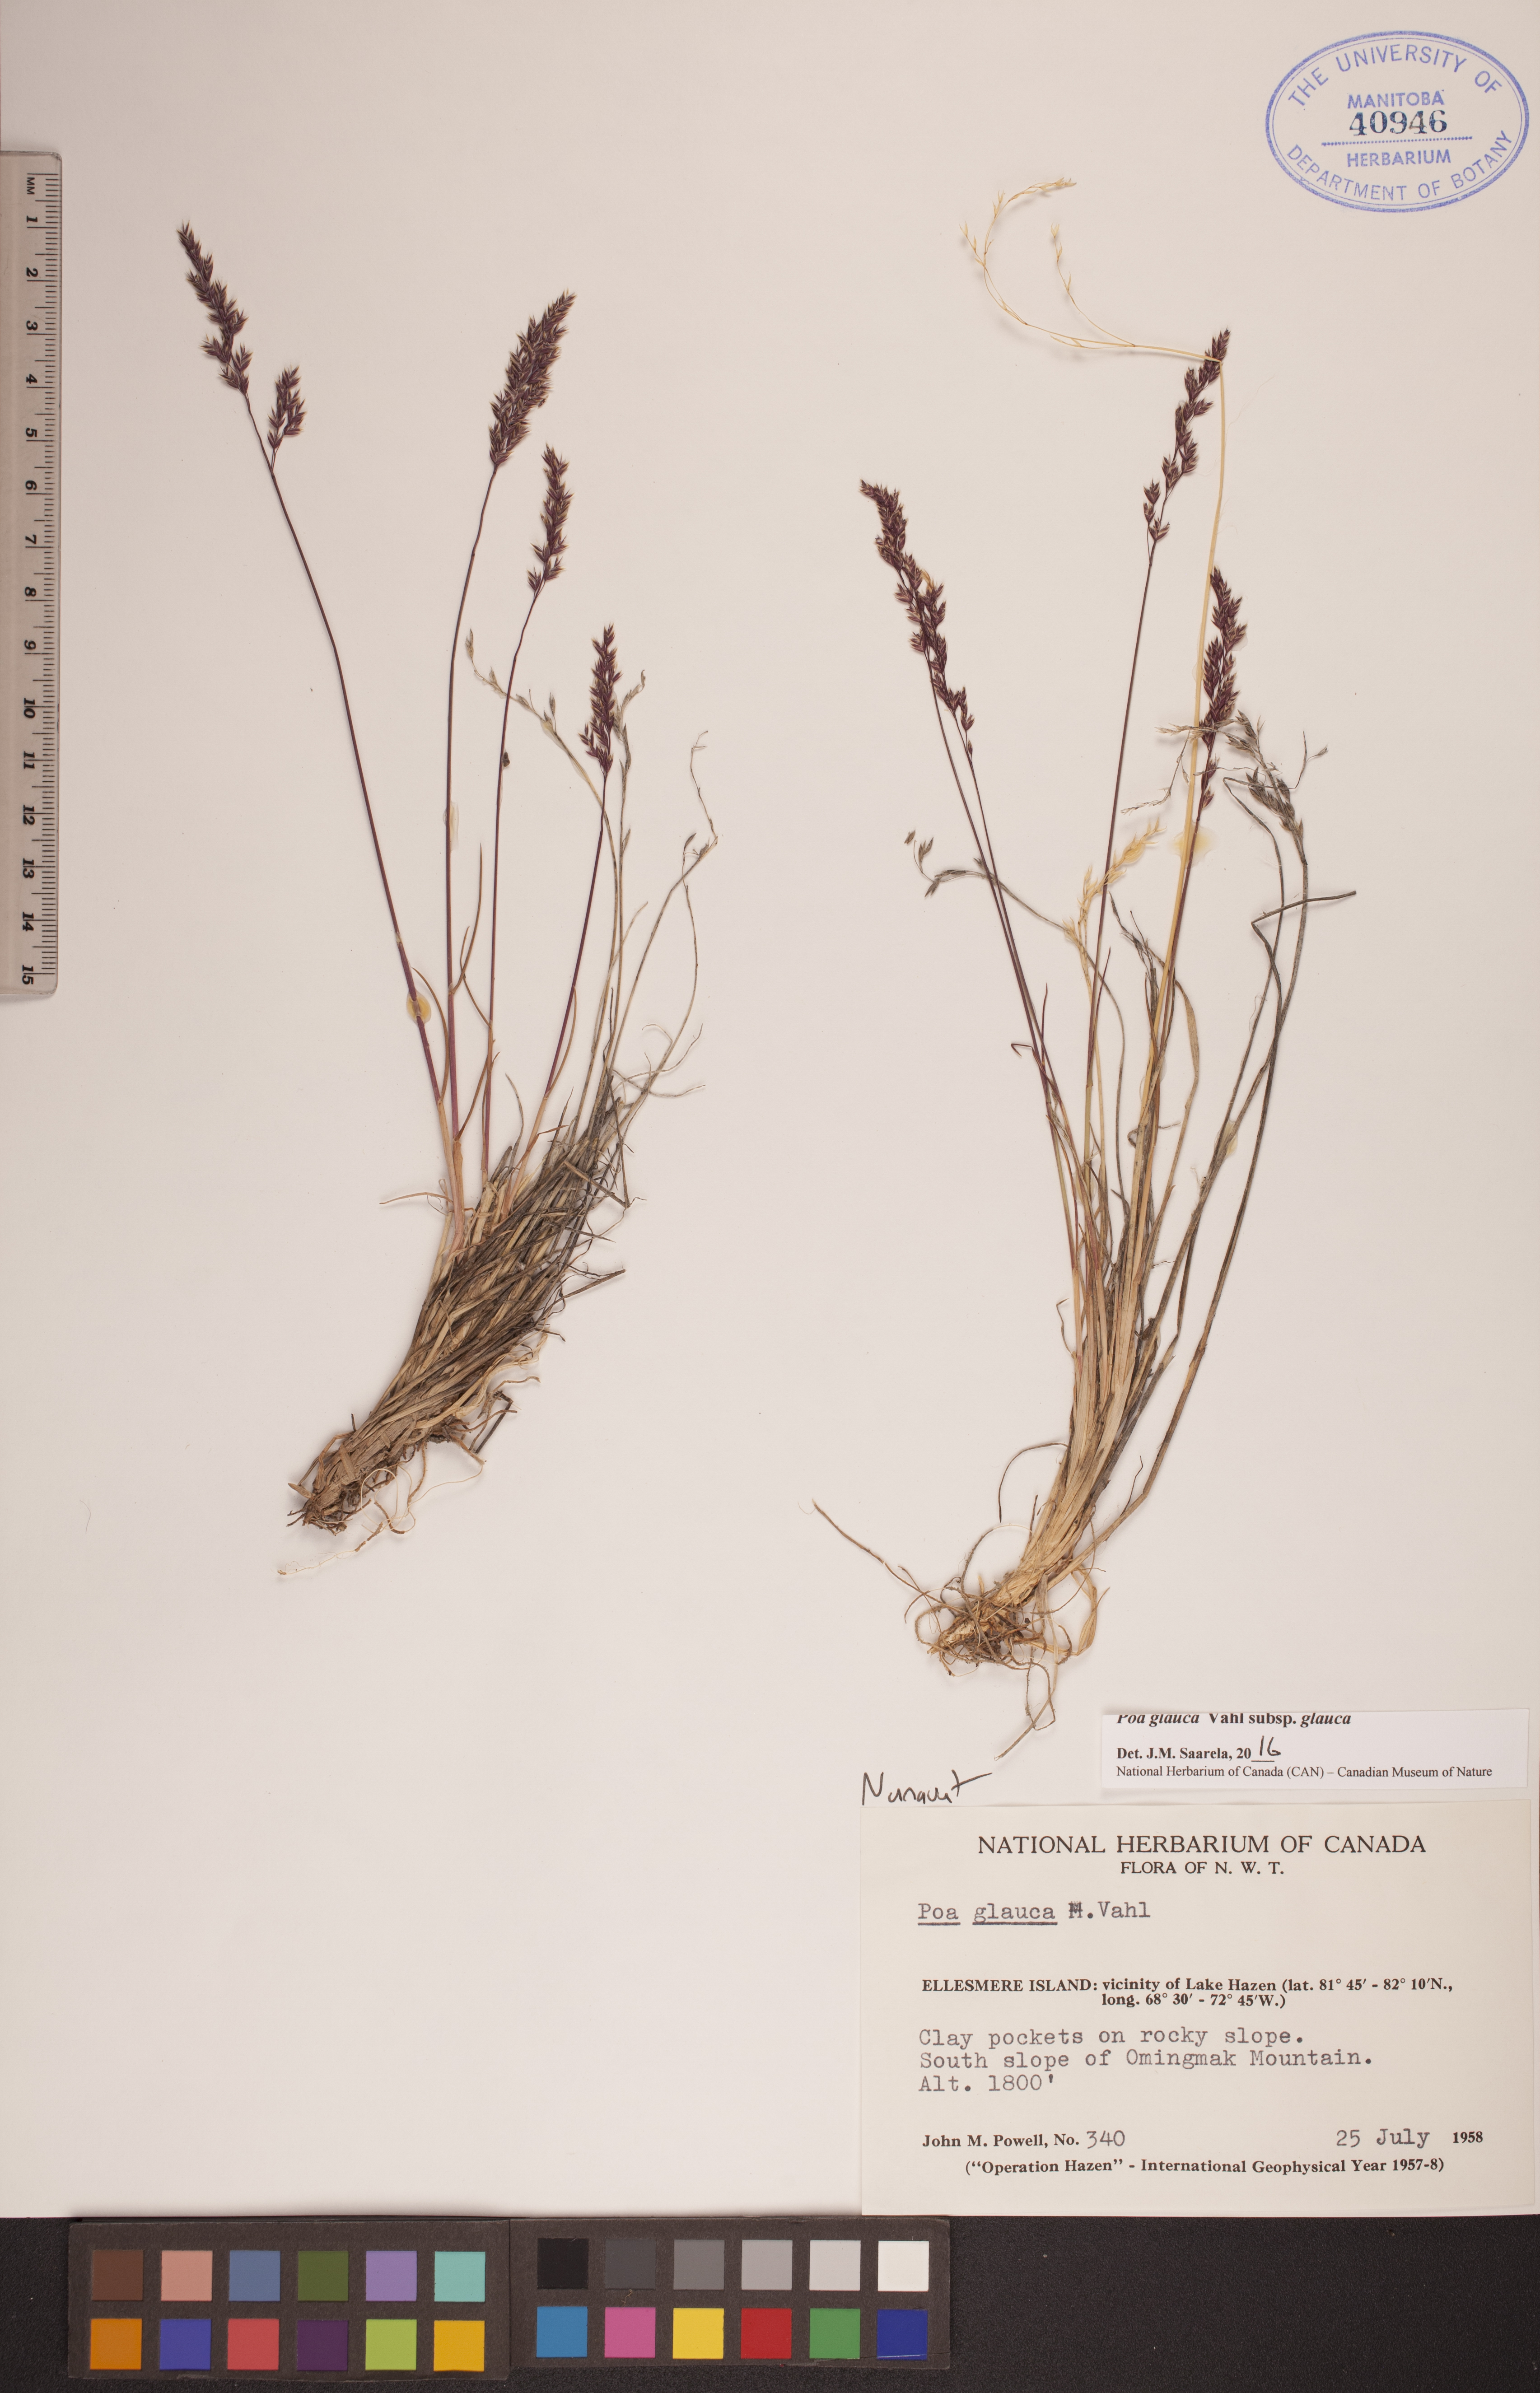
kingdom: Plantae
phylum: Tracheophyta
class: Liliopsida
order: Poales
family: Poaceae
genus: Poa
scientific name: Poa glauca
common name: Glaucous bluegrass
